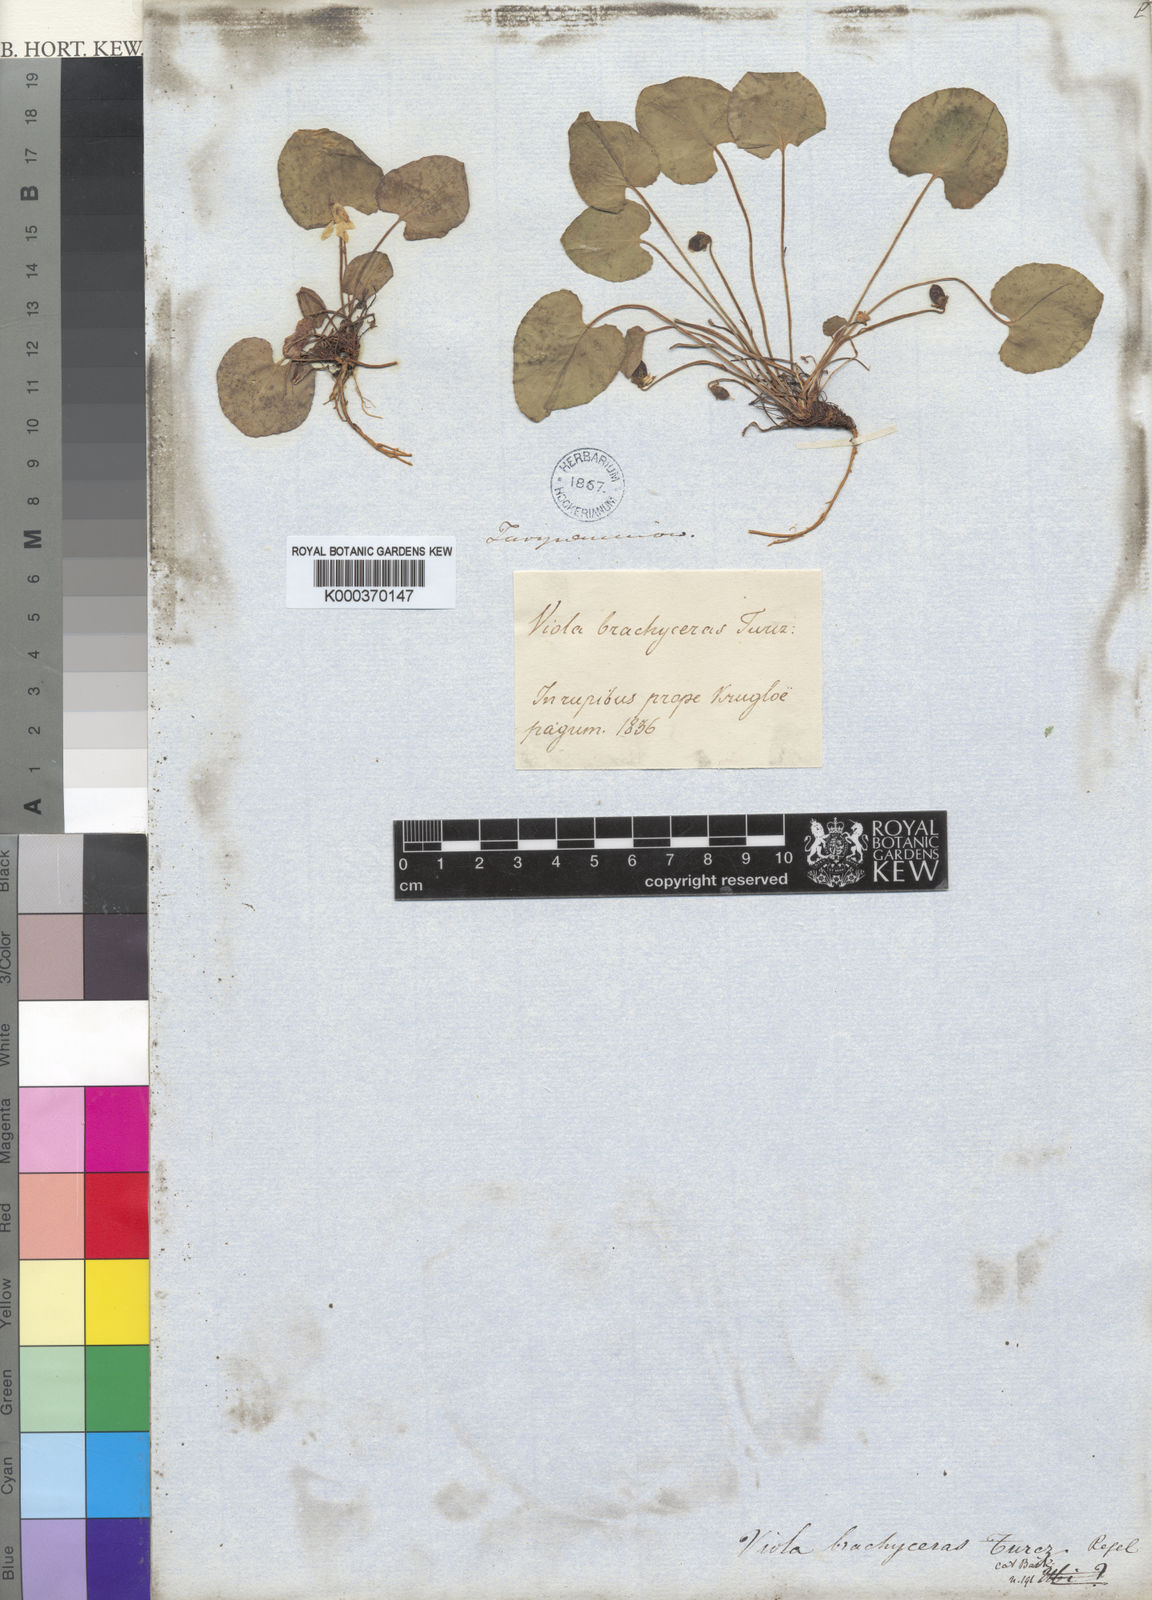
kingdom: Plantae
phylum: Tracheophyta
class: Magnoliopsida
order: Malpighiales
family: Violaceae
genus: Viola
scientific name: Viola epipsila
